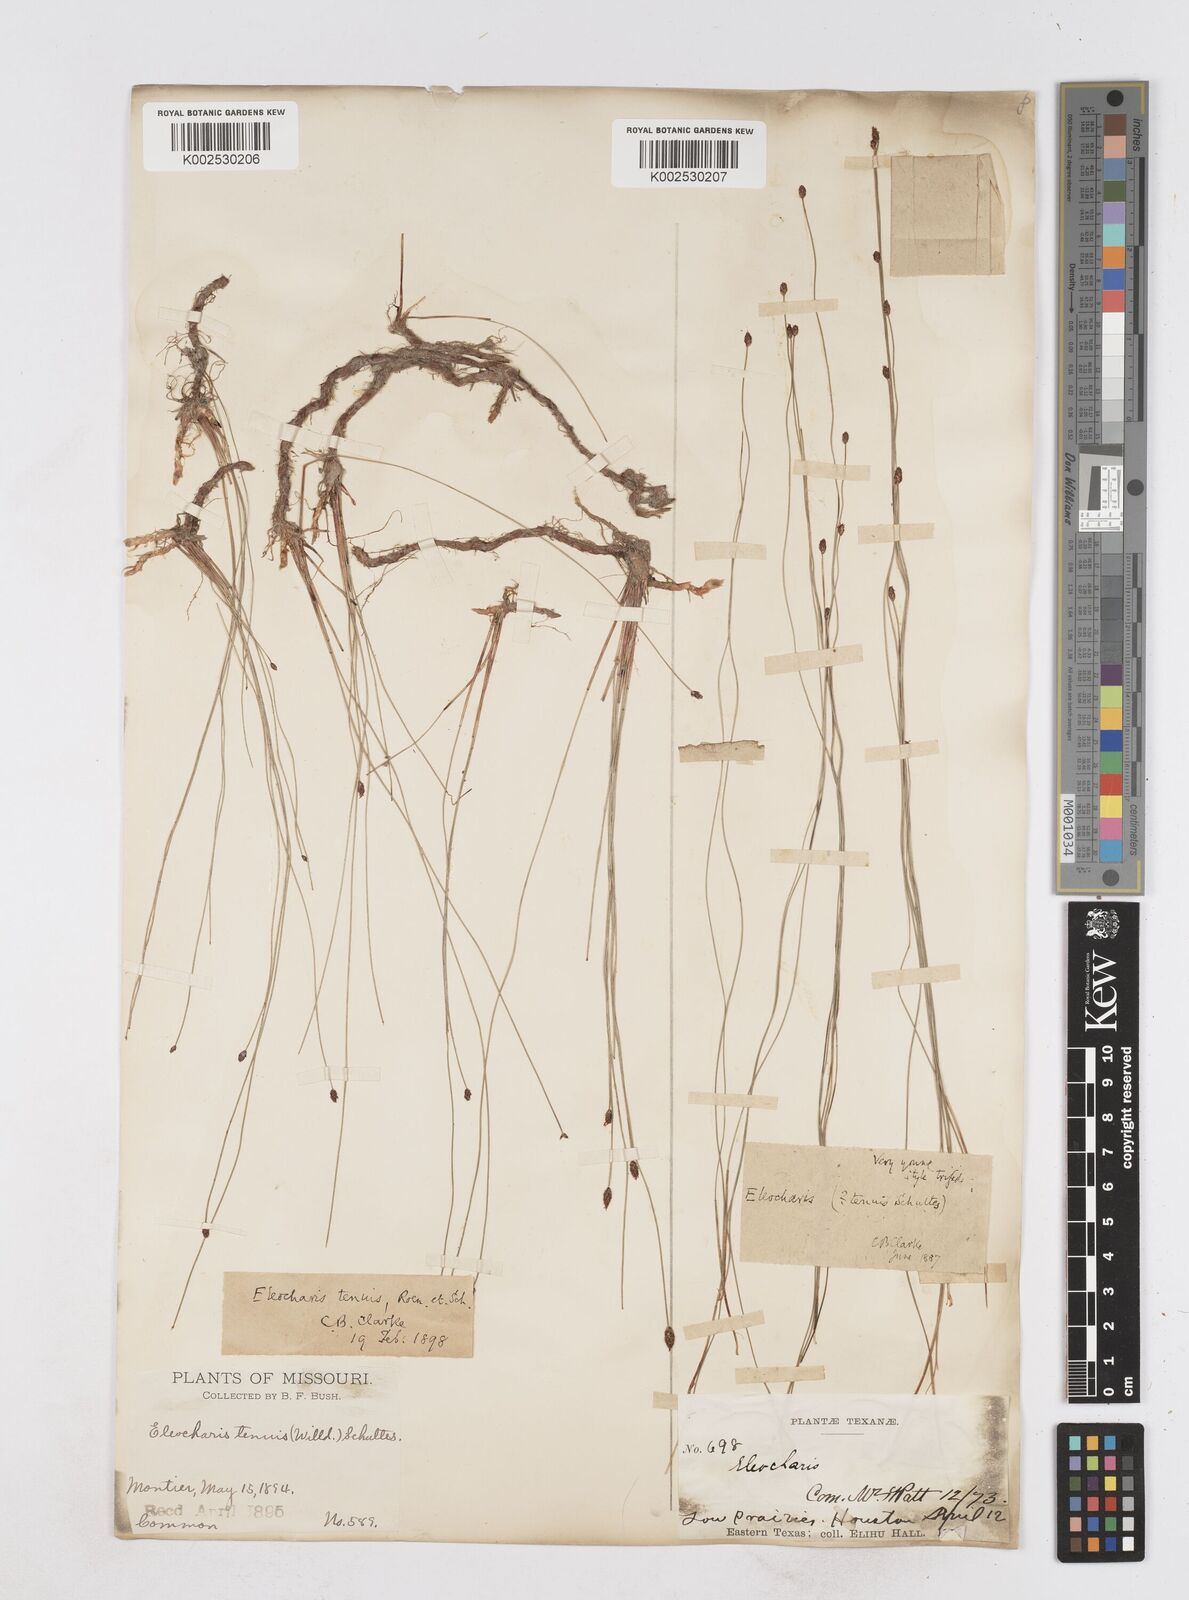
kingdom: Plantae
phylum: Tracheophyta
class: Liliopsida
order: Poales
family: Cyperaceae
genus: Eleocharis
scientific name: Eleocharis tenuis
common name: Dog's hair
